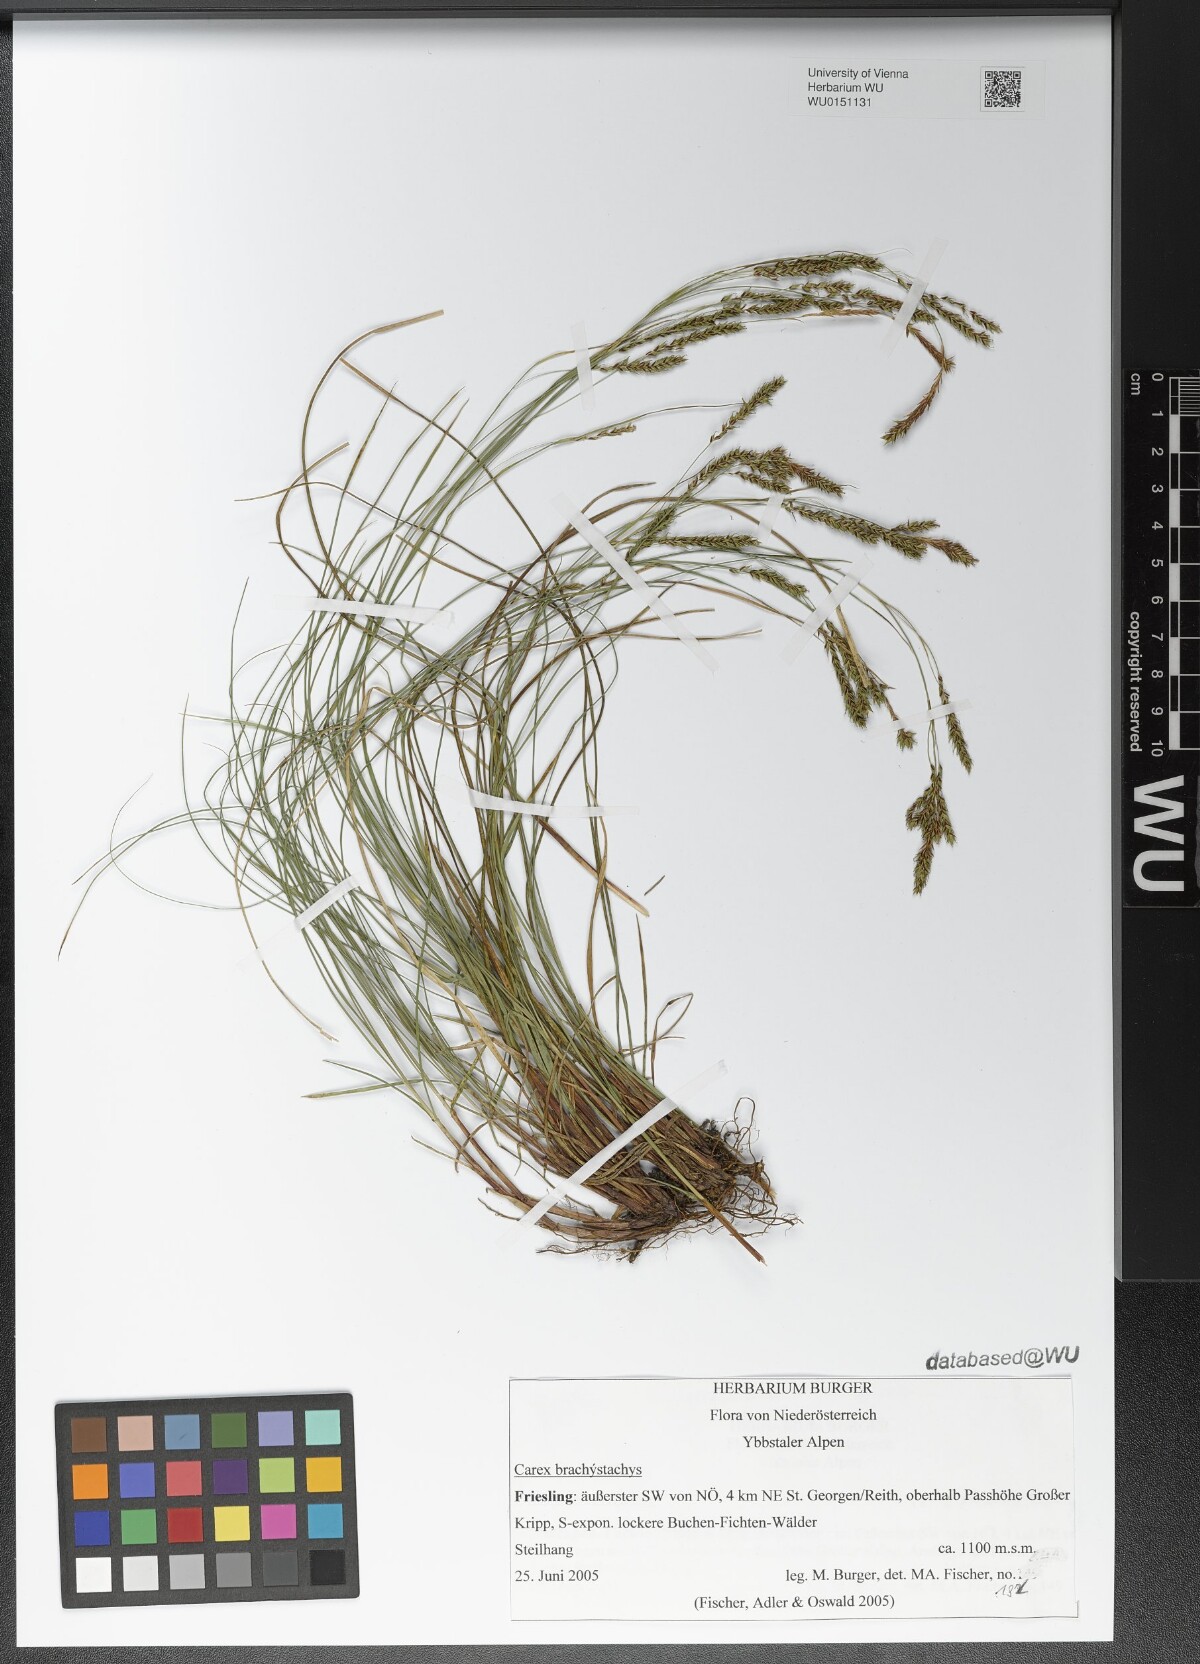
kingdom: Plantae
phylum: Tracheophyta
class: Liliopsida
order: Poales
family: Cyperaceae
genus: Carex
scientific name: Carex brachystachys
